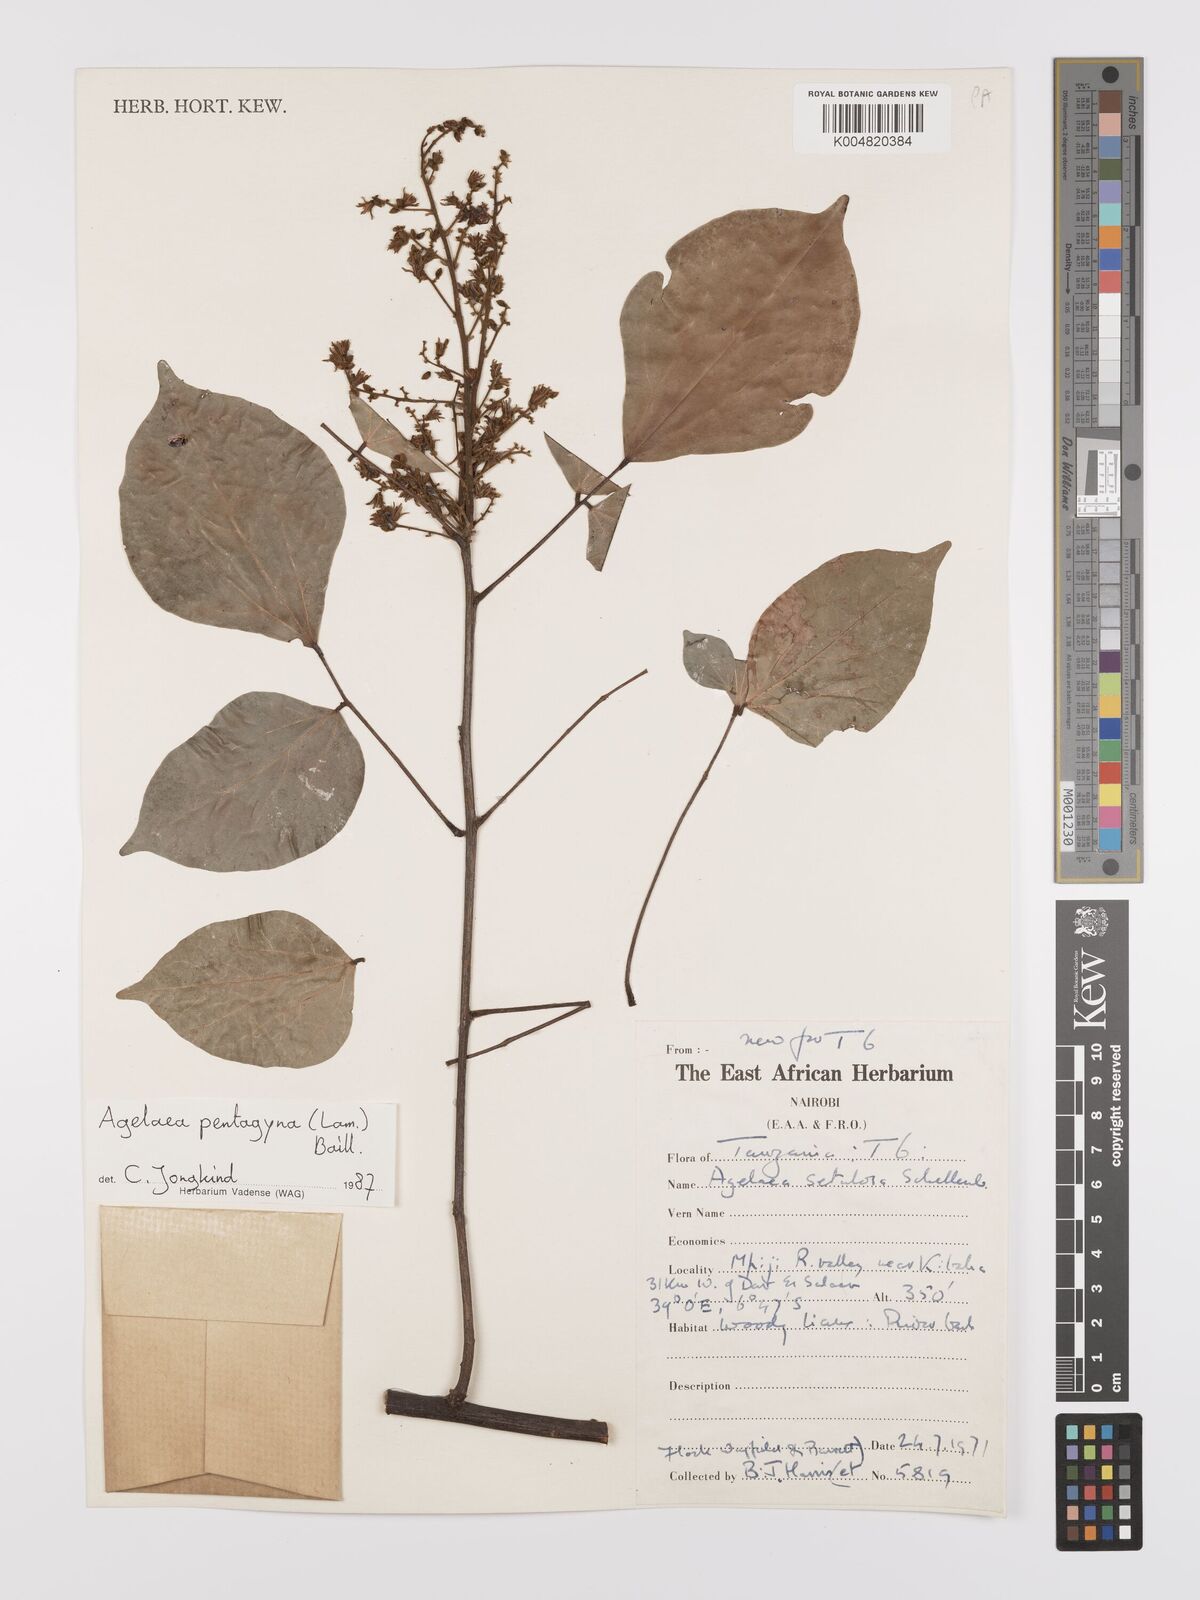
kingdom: Plantae
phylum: Tracheophyta
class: Magnoliopsida
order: Oxalidales
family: Connaraceae
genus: Agelaea
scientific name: Agelaea pentagyna
